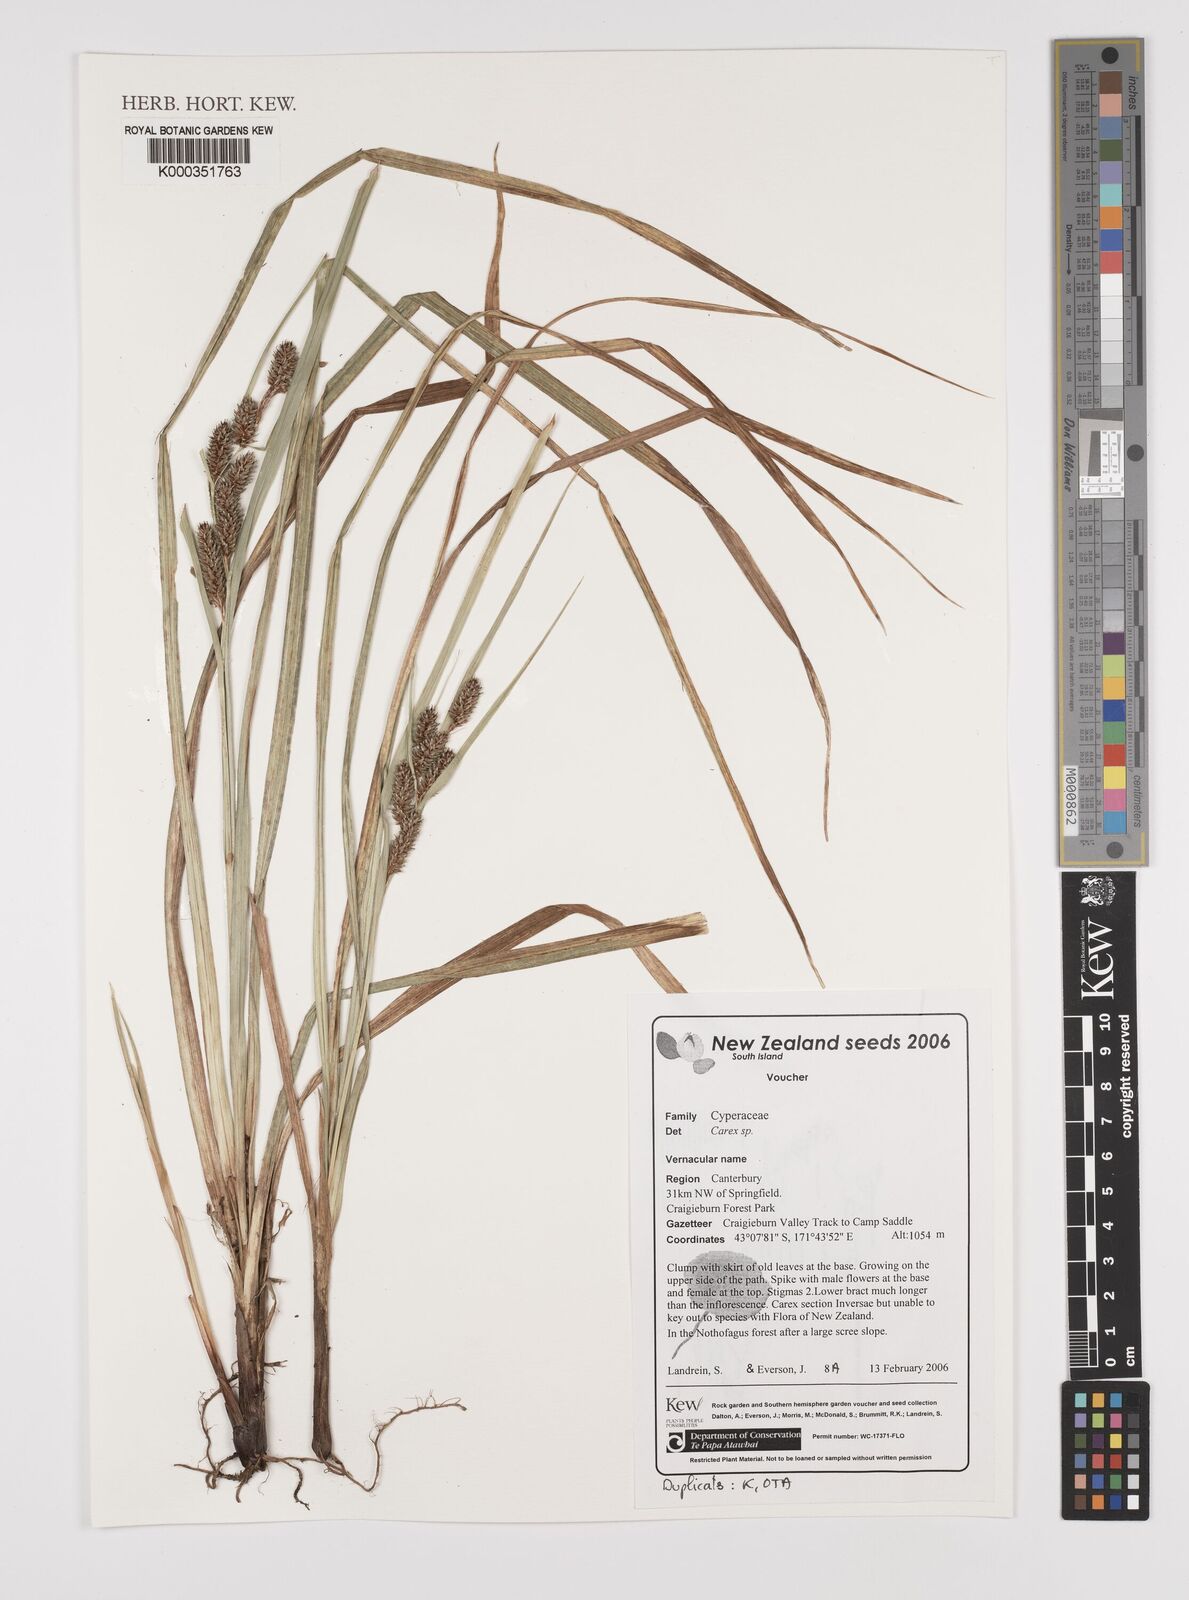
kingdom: Plantae
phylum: Tracheophyta
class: Liliopsida
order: Poales
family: Cyperaceae
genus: Carex
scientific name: Carex
